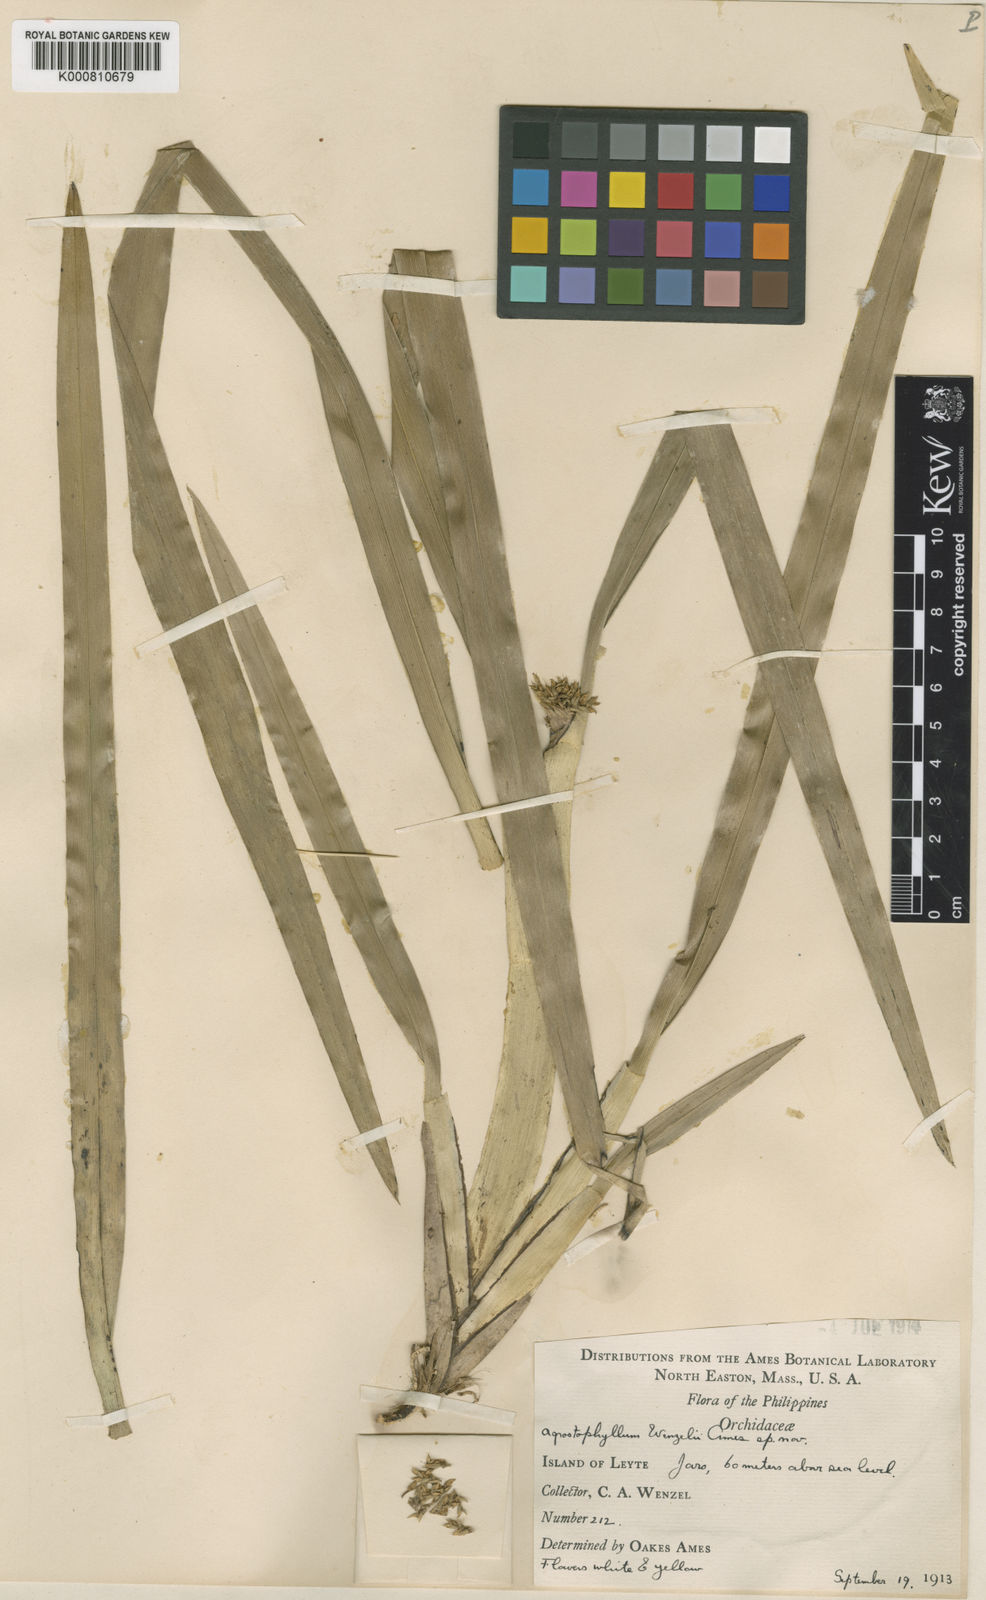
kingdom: Plantae
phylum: Tracheophyta
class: Liliopsida
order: Asparagales
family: Orchidaceae
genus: Agrostophyllum
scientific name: Agrostophyllum glumaceum
